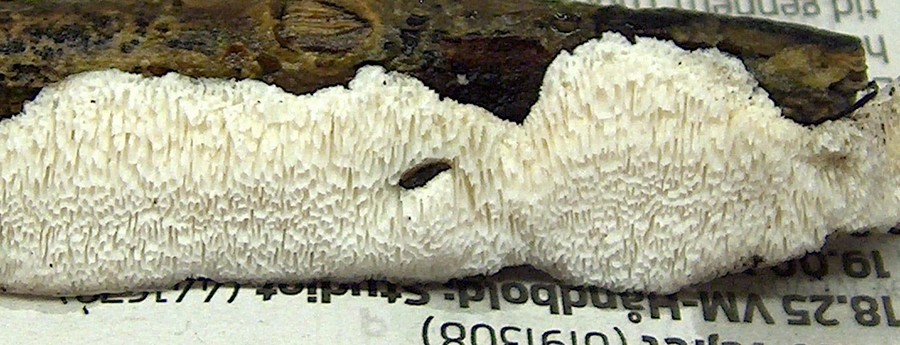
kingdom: Fungi
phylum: Basidiomycota
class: Agaricomycetes
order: Polyporales
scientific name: Polyporales
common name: poresvampordenen
